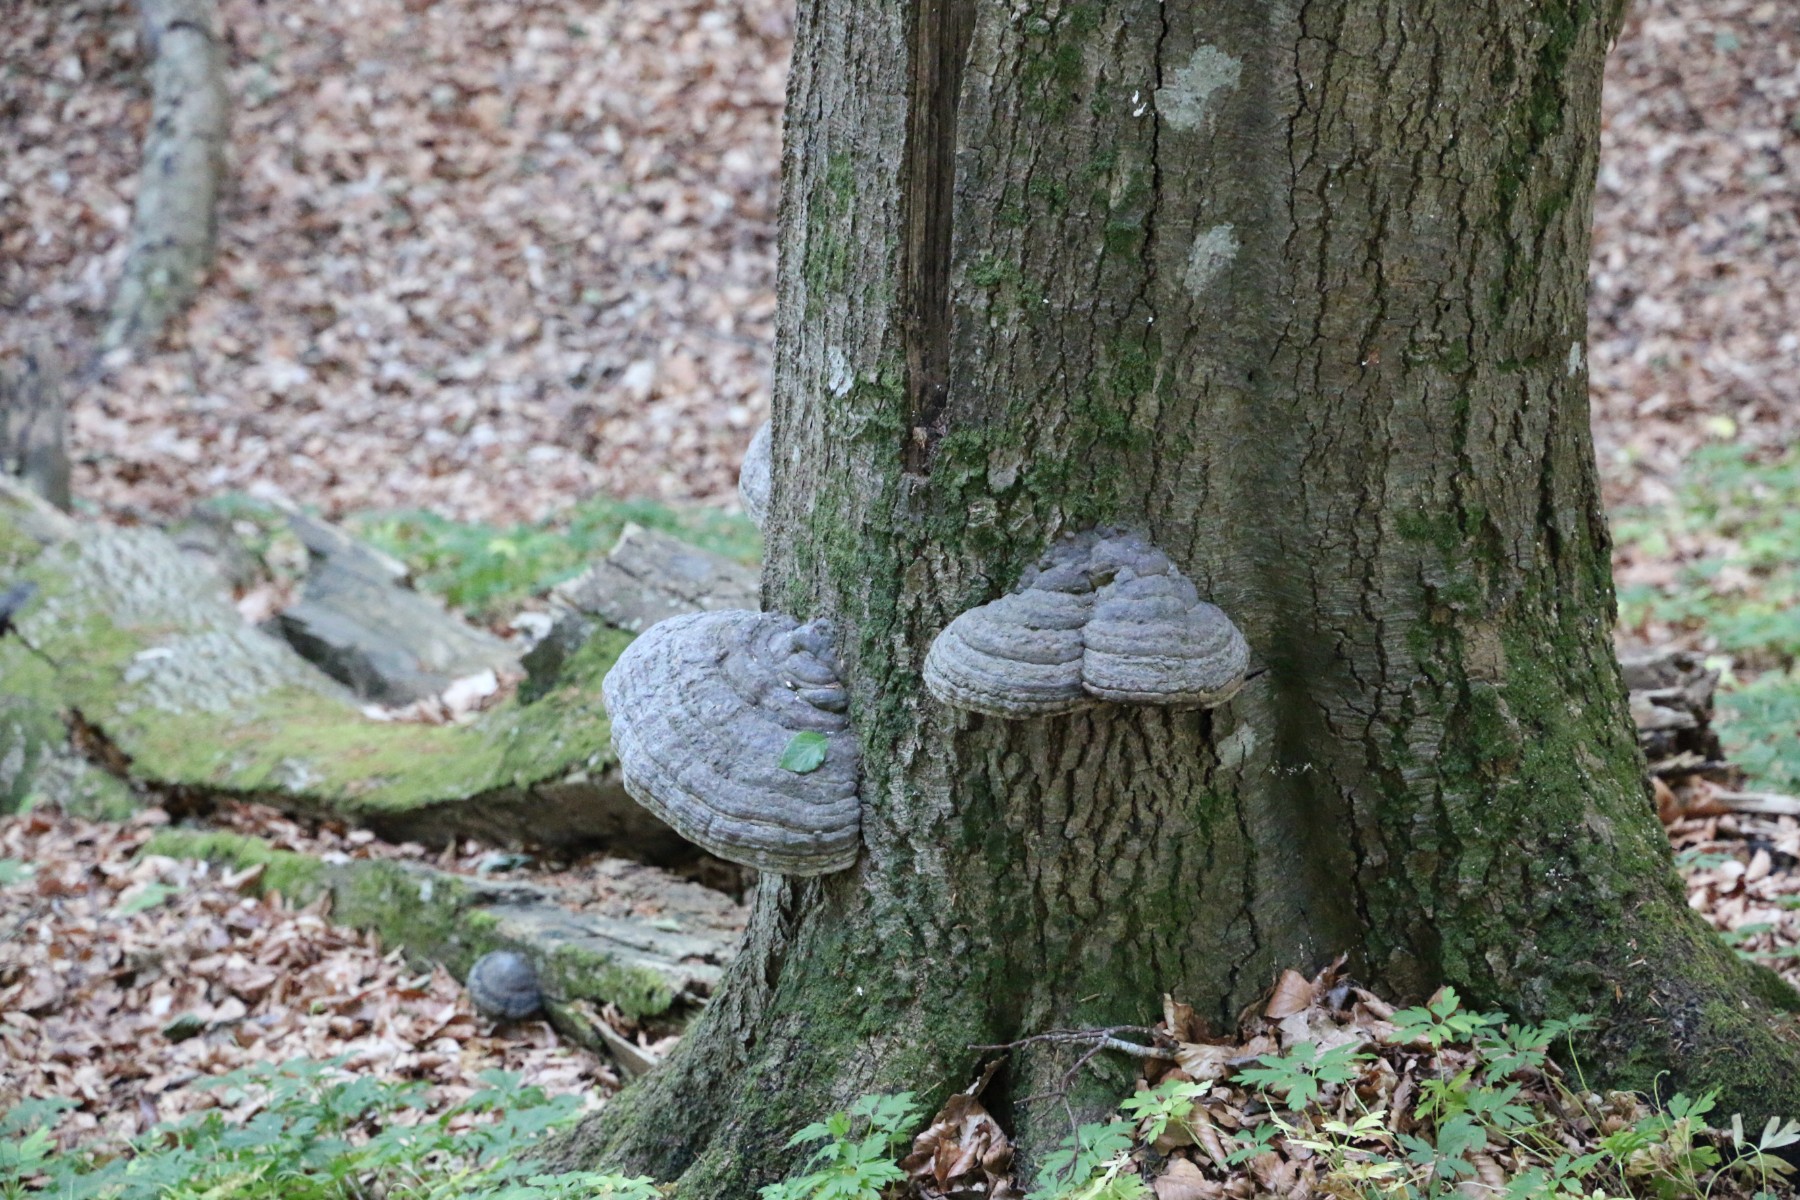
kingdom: Fungi
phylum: Basidiomycota
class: Agaricomycetes
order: Polyporales
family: Polyporaceae
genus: Fomes
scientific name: Fomes fomentarius
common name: tøndersvamp
